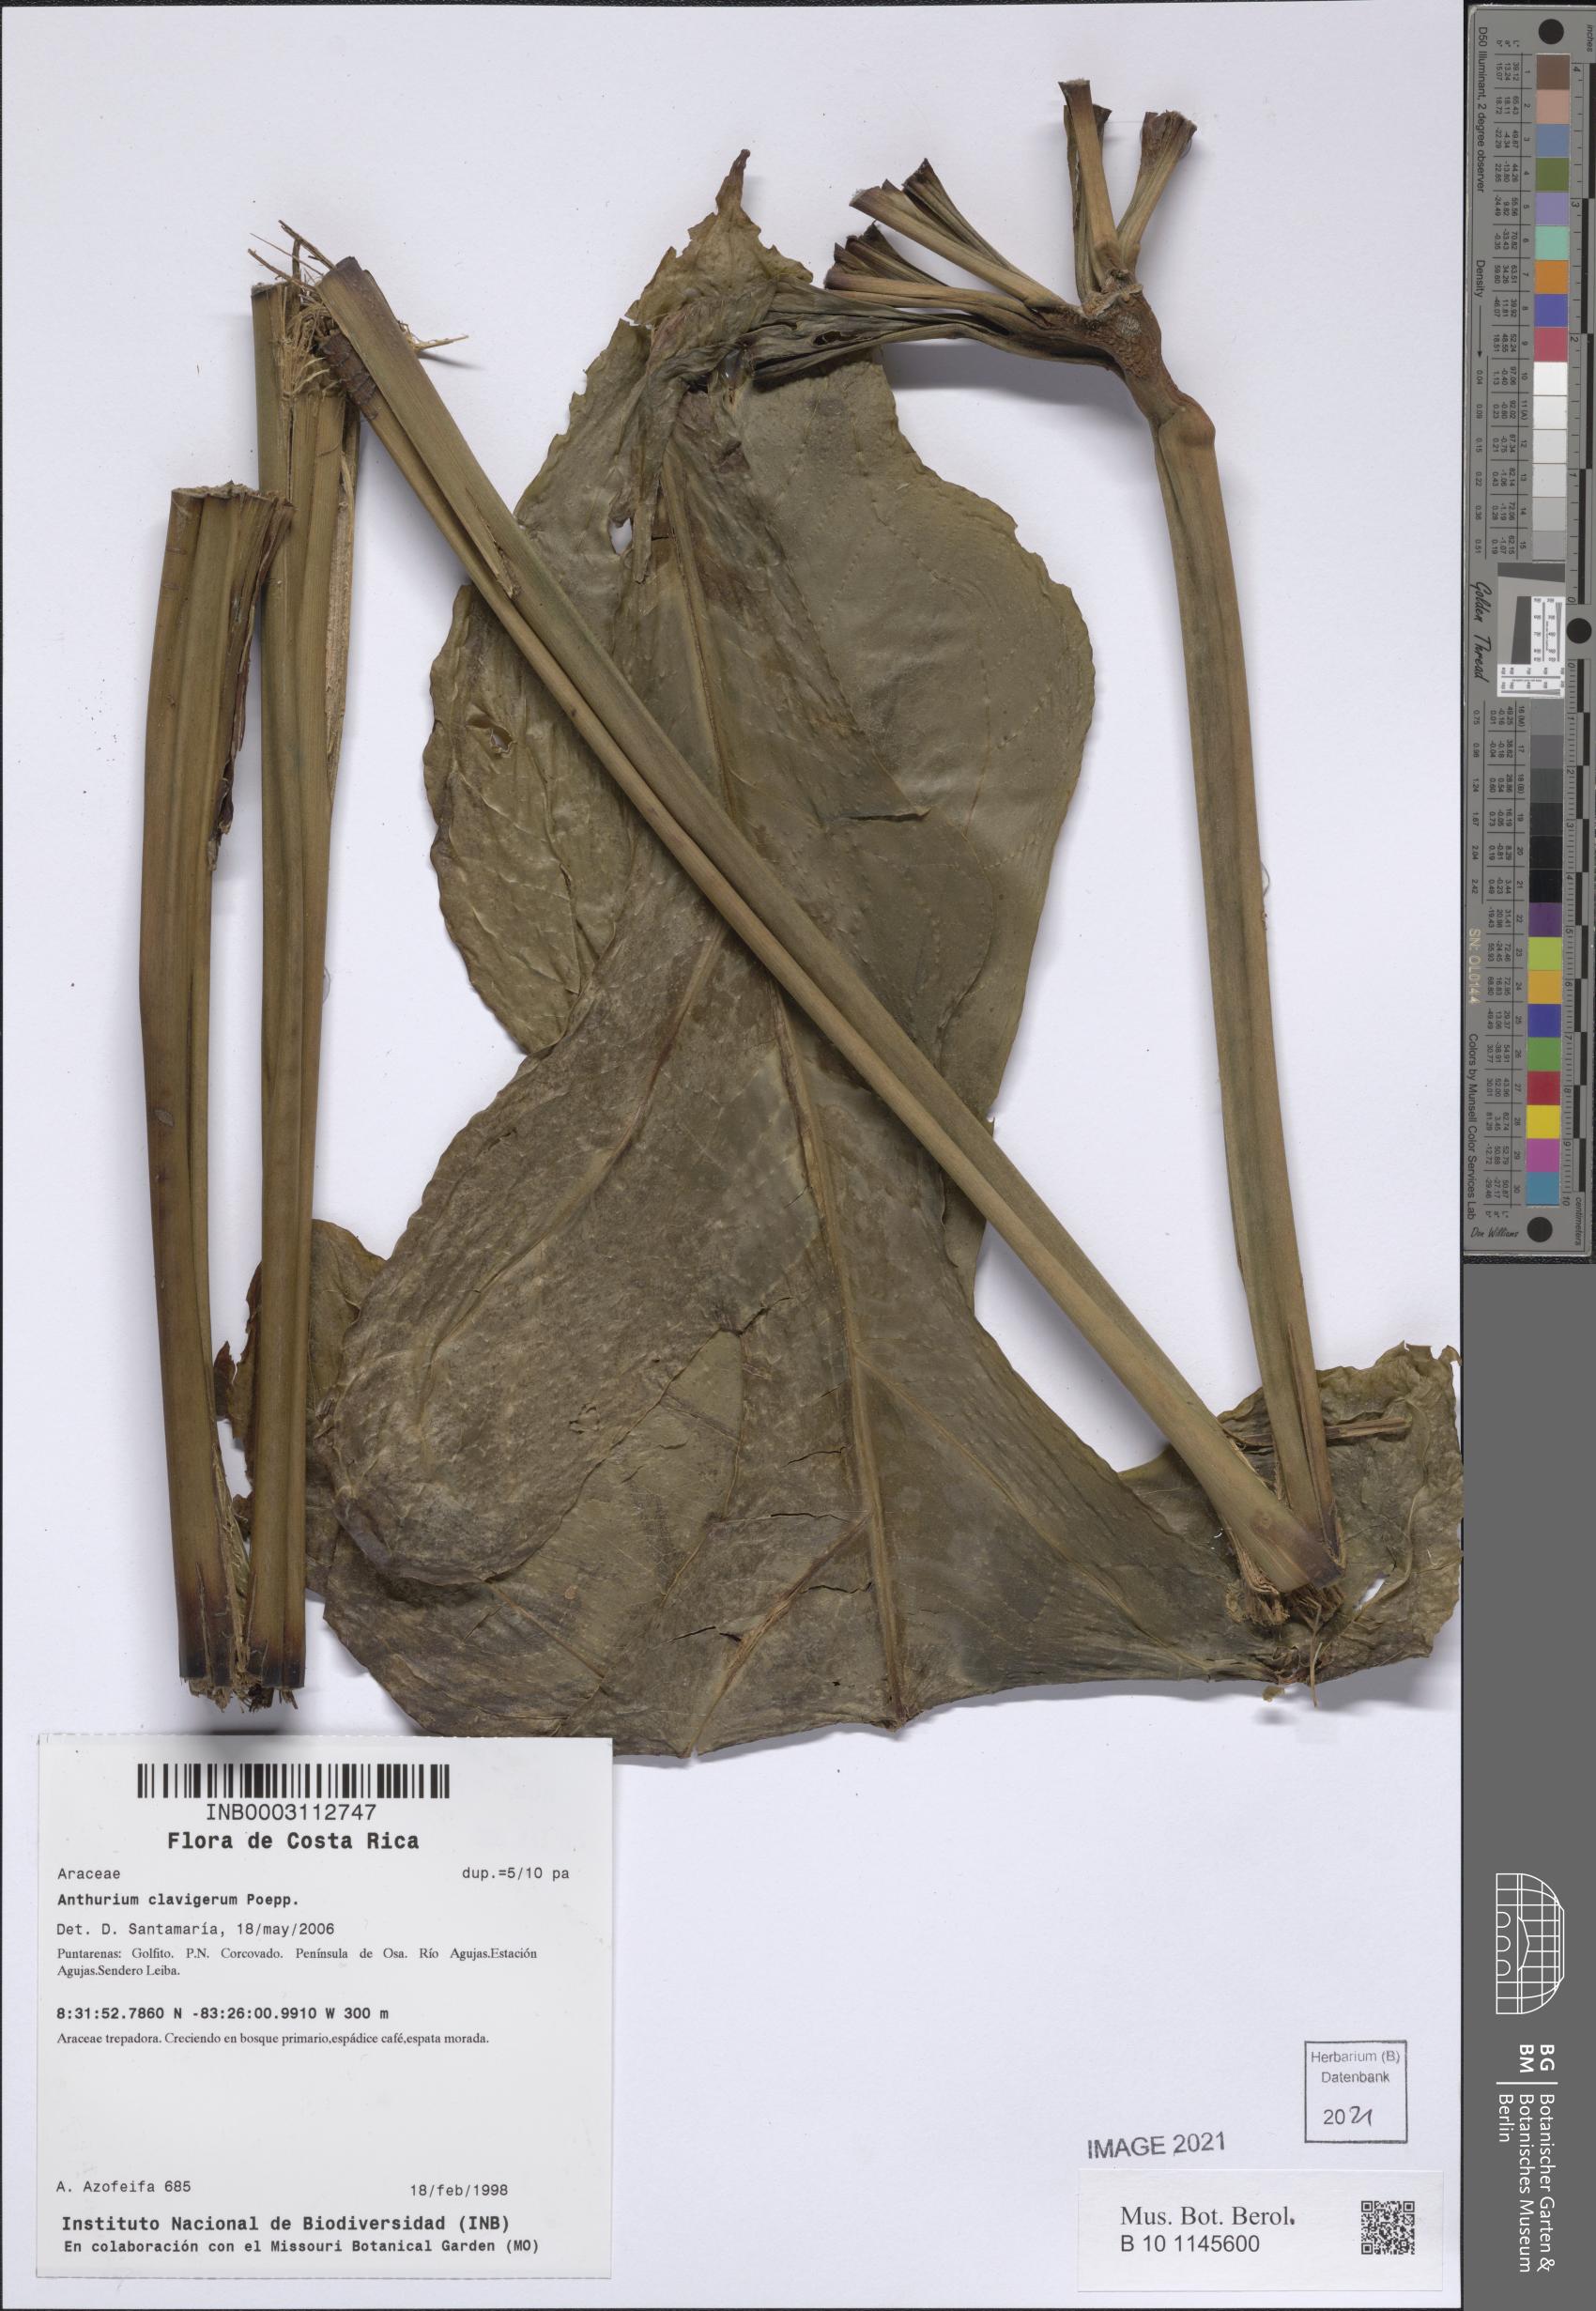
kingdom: Plantae
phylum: Tracheophyta
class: Liliopsida
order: Alismatales
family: Araceae
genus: Anthurium
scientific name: Anthurium clavigerum
